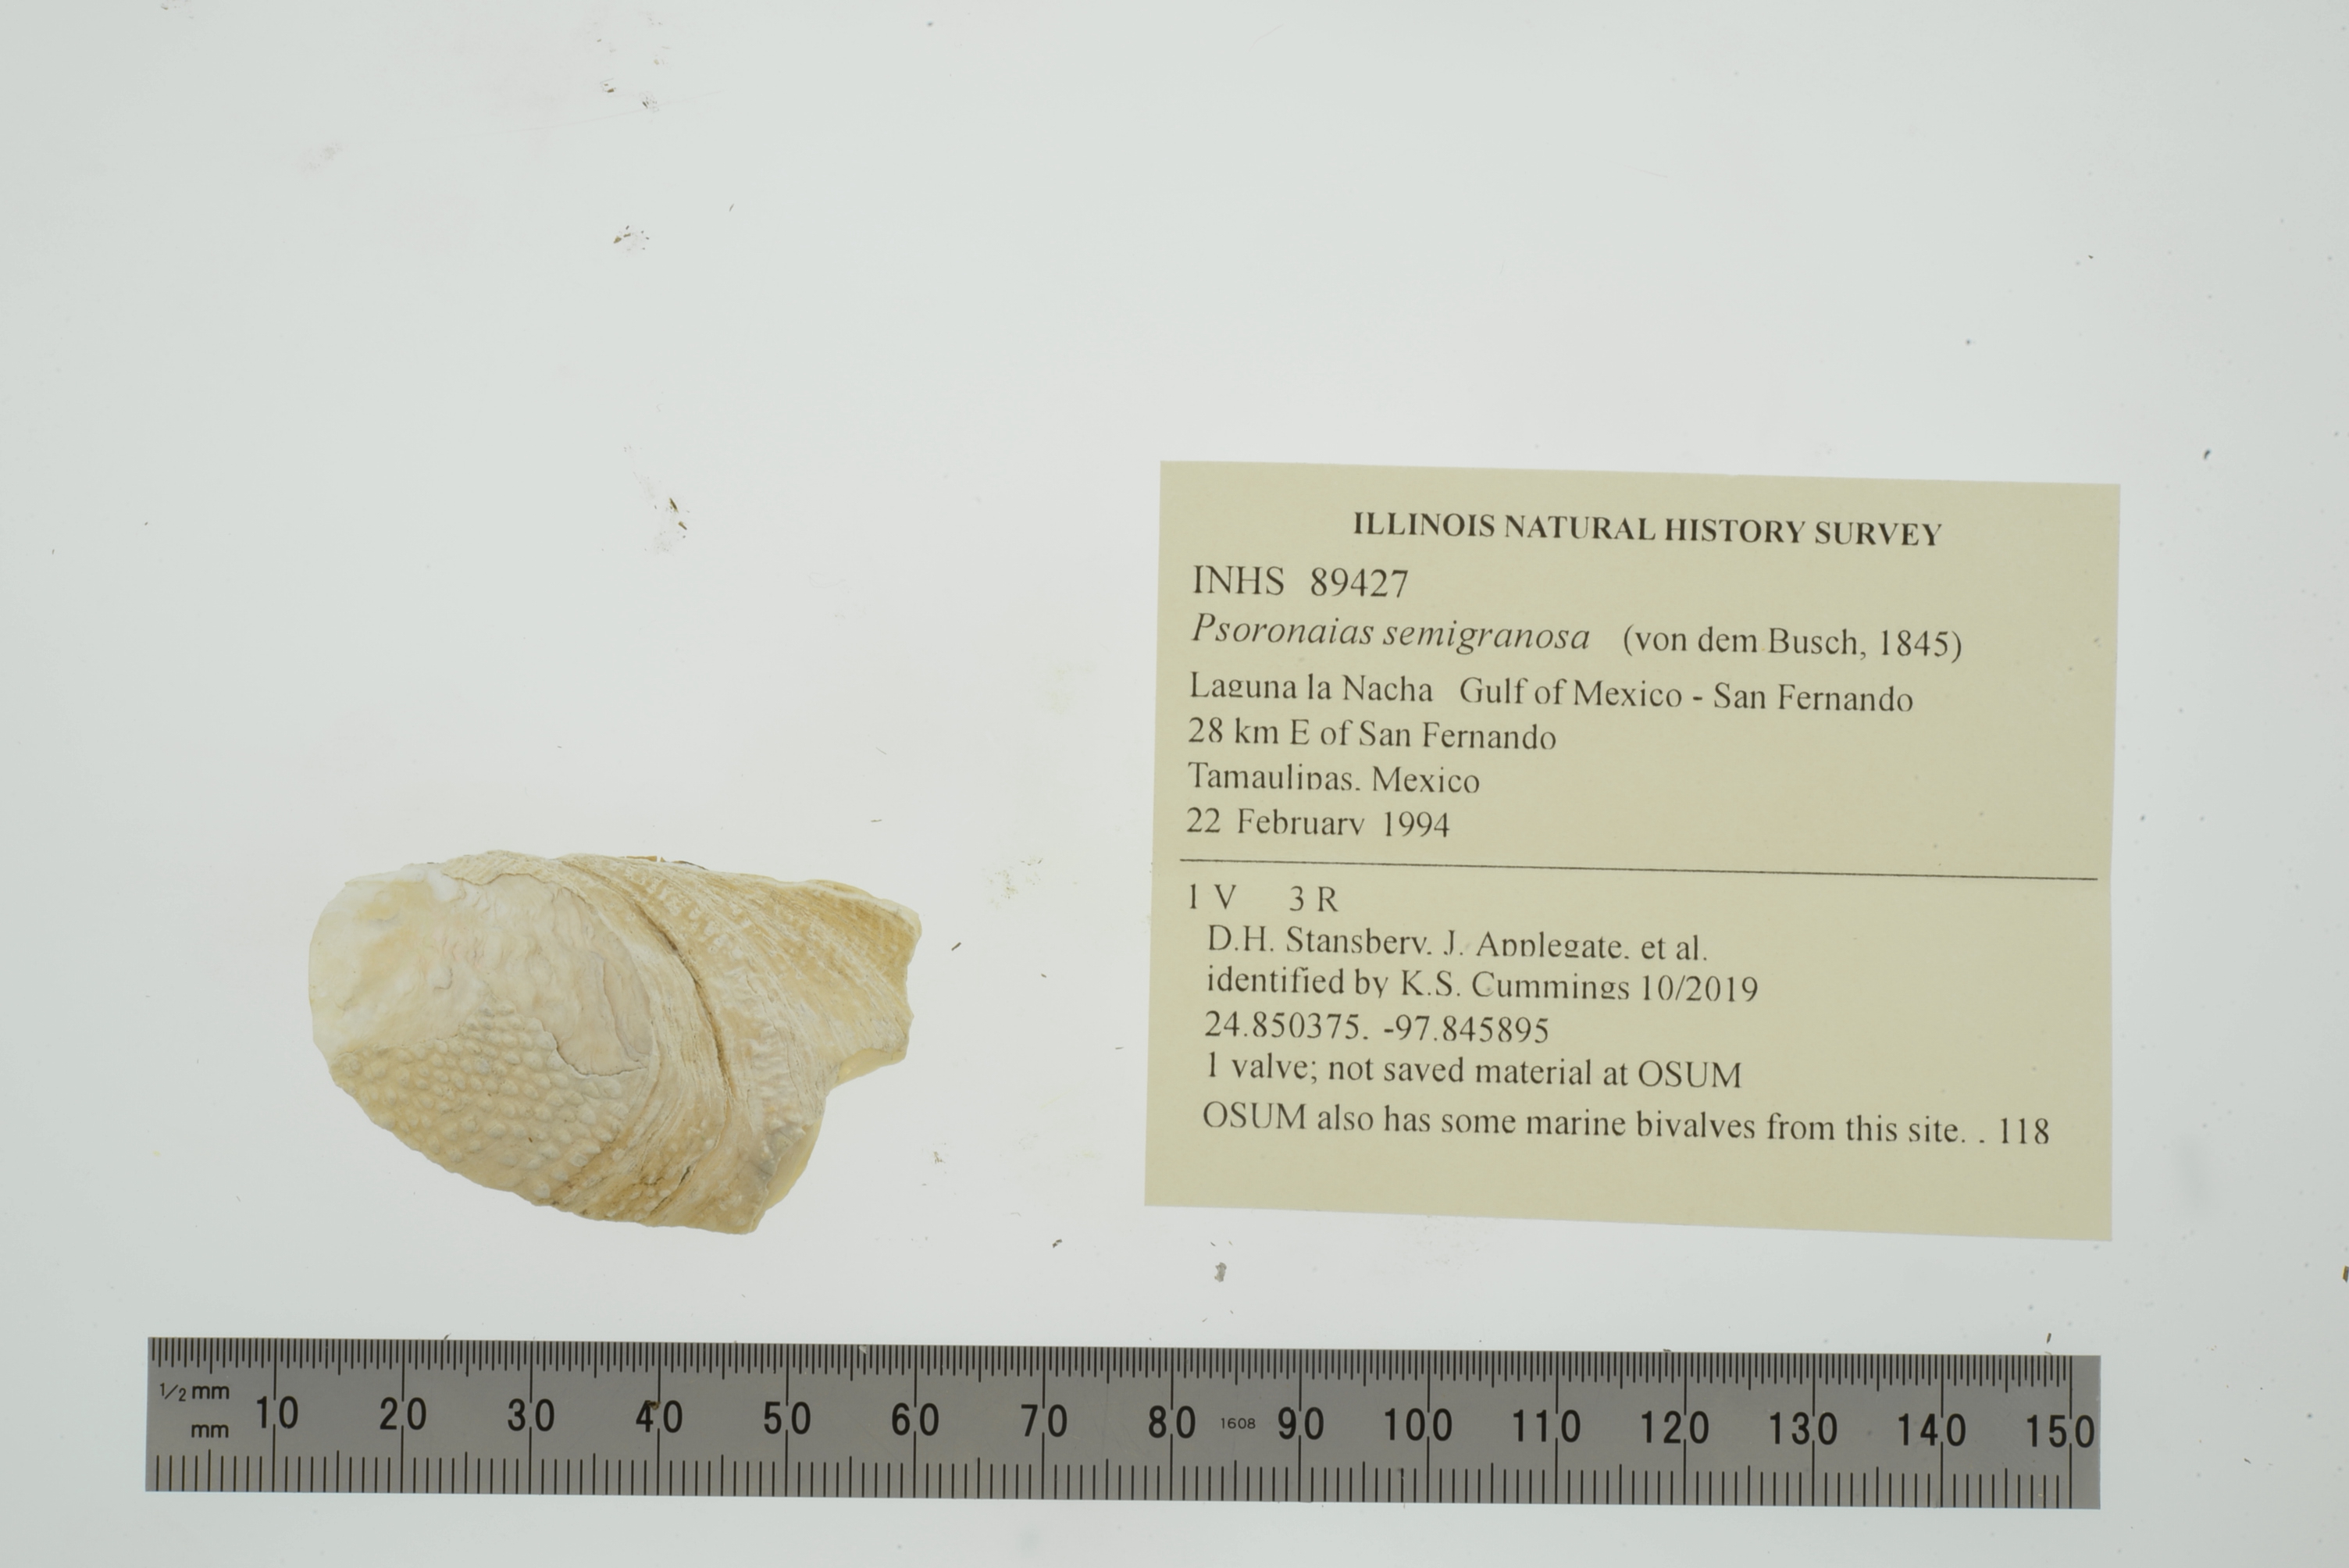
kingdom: Animalia
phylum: Mollusca
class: Bivalvia
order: Unionida
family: Unionidae
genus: Psoronaias
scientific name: Psoronaias semigranosa
